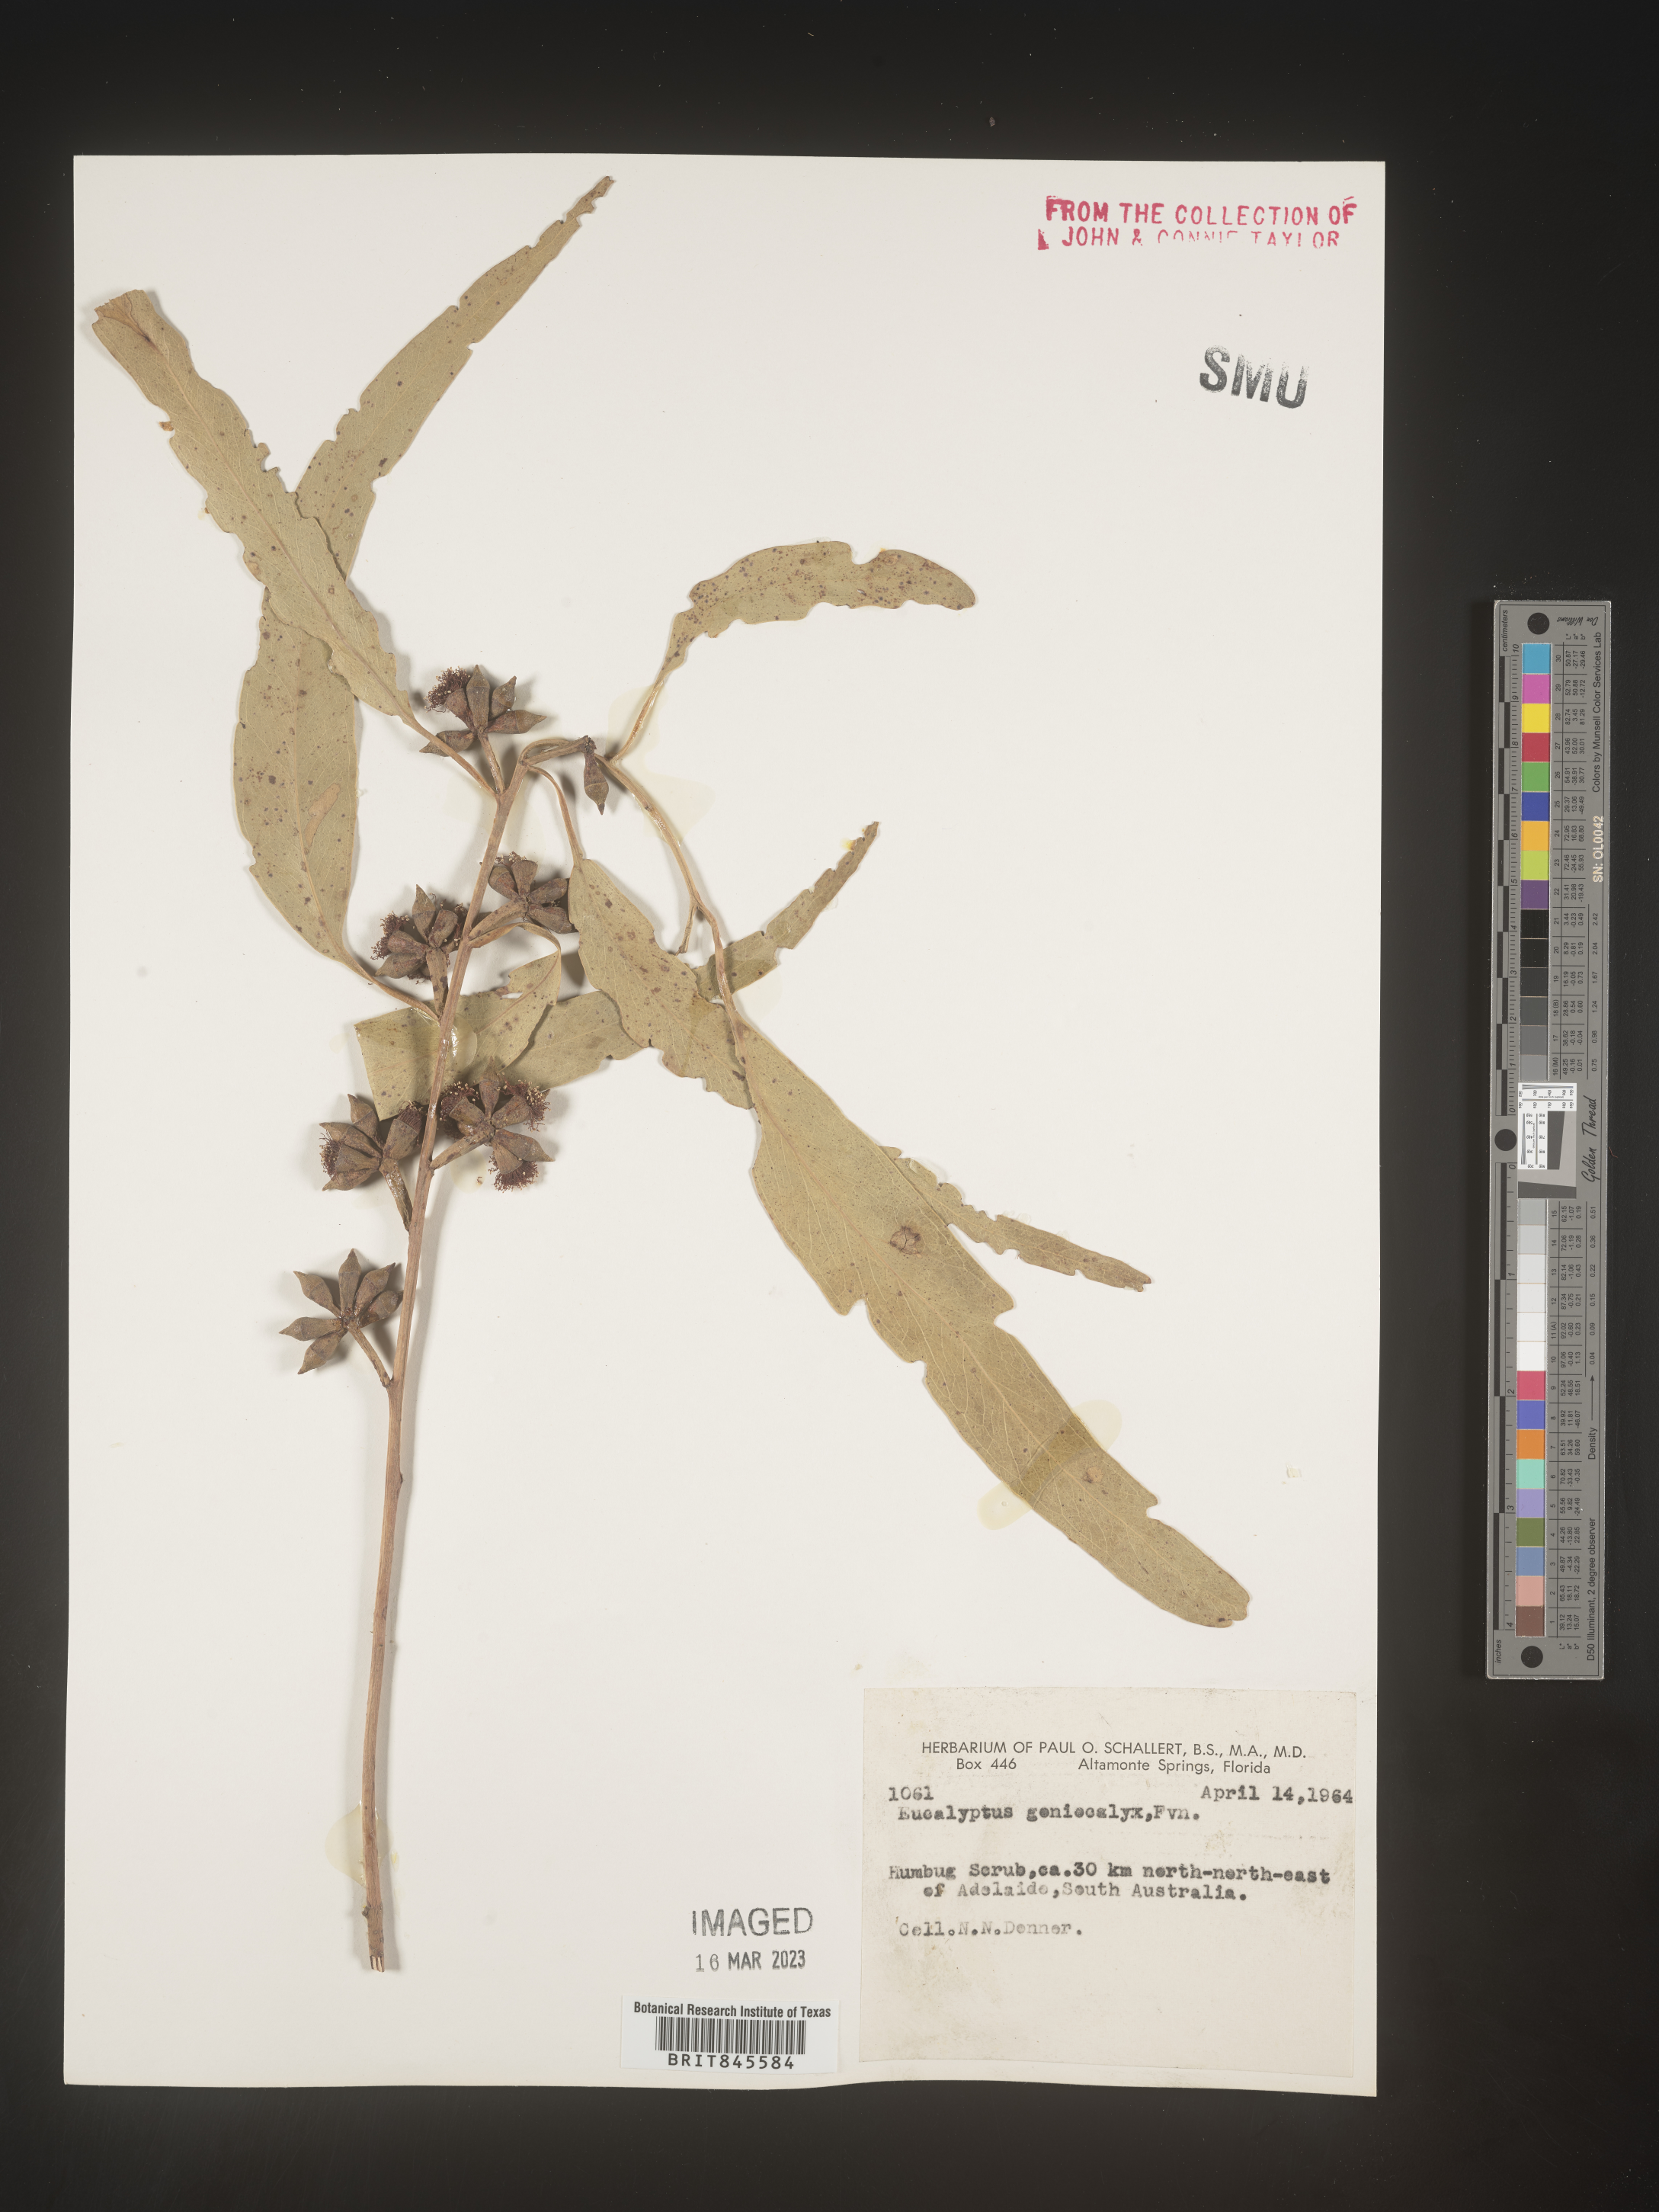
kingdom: Plantae
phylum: Tracheophyta
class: Magnoliopsida
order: Myrtales
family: Myrtaceae
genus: Eucalyptus
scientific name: Eucalyptus
